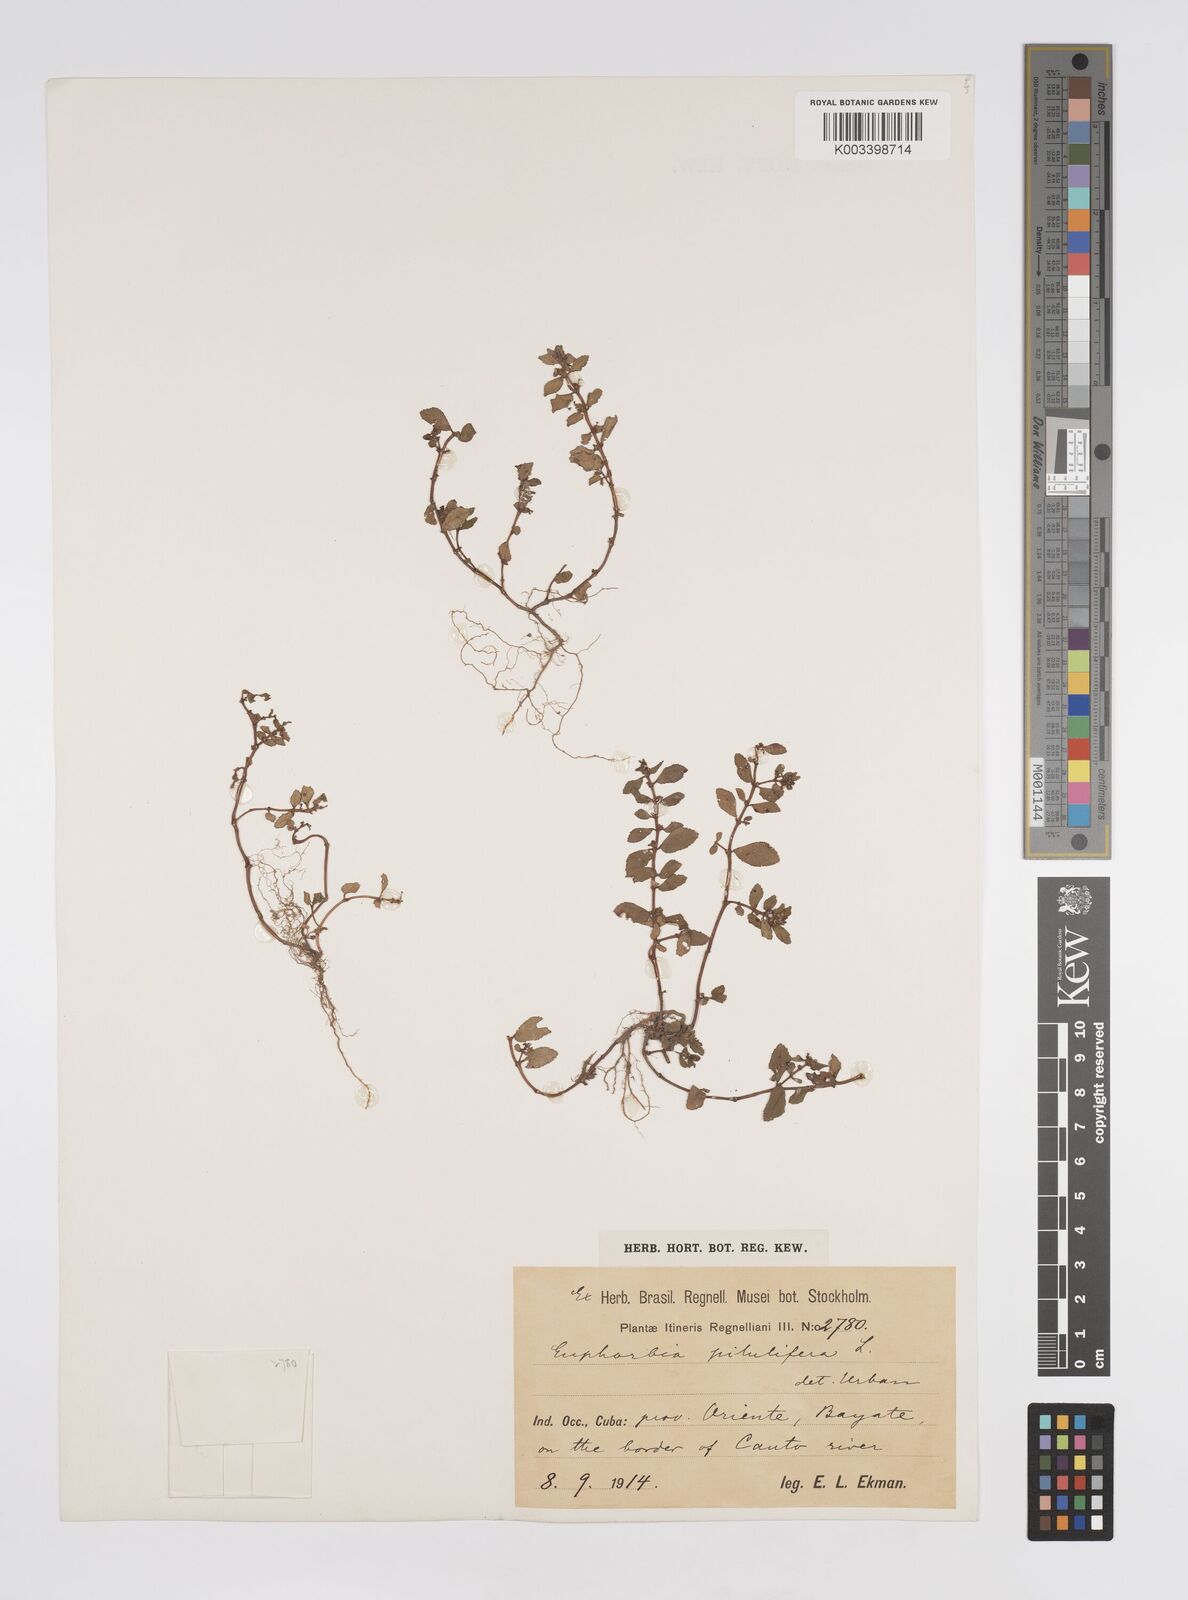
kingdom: Plantae
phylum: Tracheophyta
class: Magnoliopsida
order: Malpighiales
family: Euphorbiaceae
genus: Euphorbia
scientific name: Euphorbia hirta
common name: Pillpod sandmat
